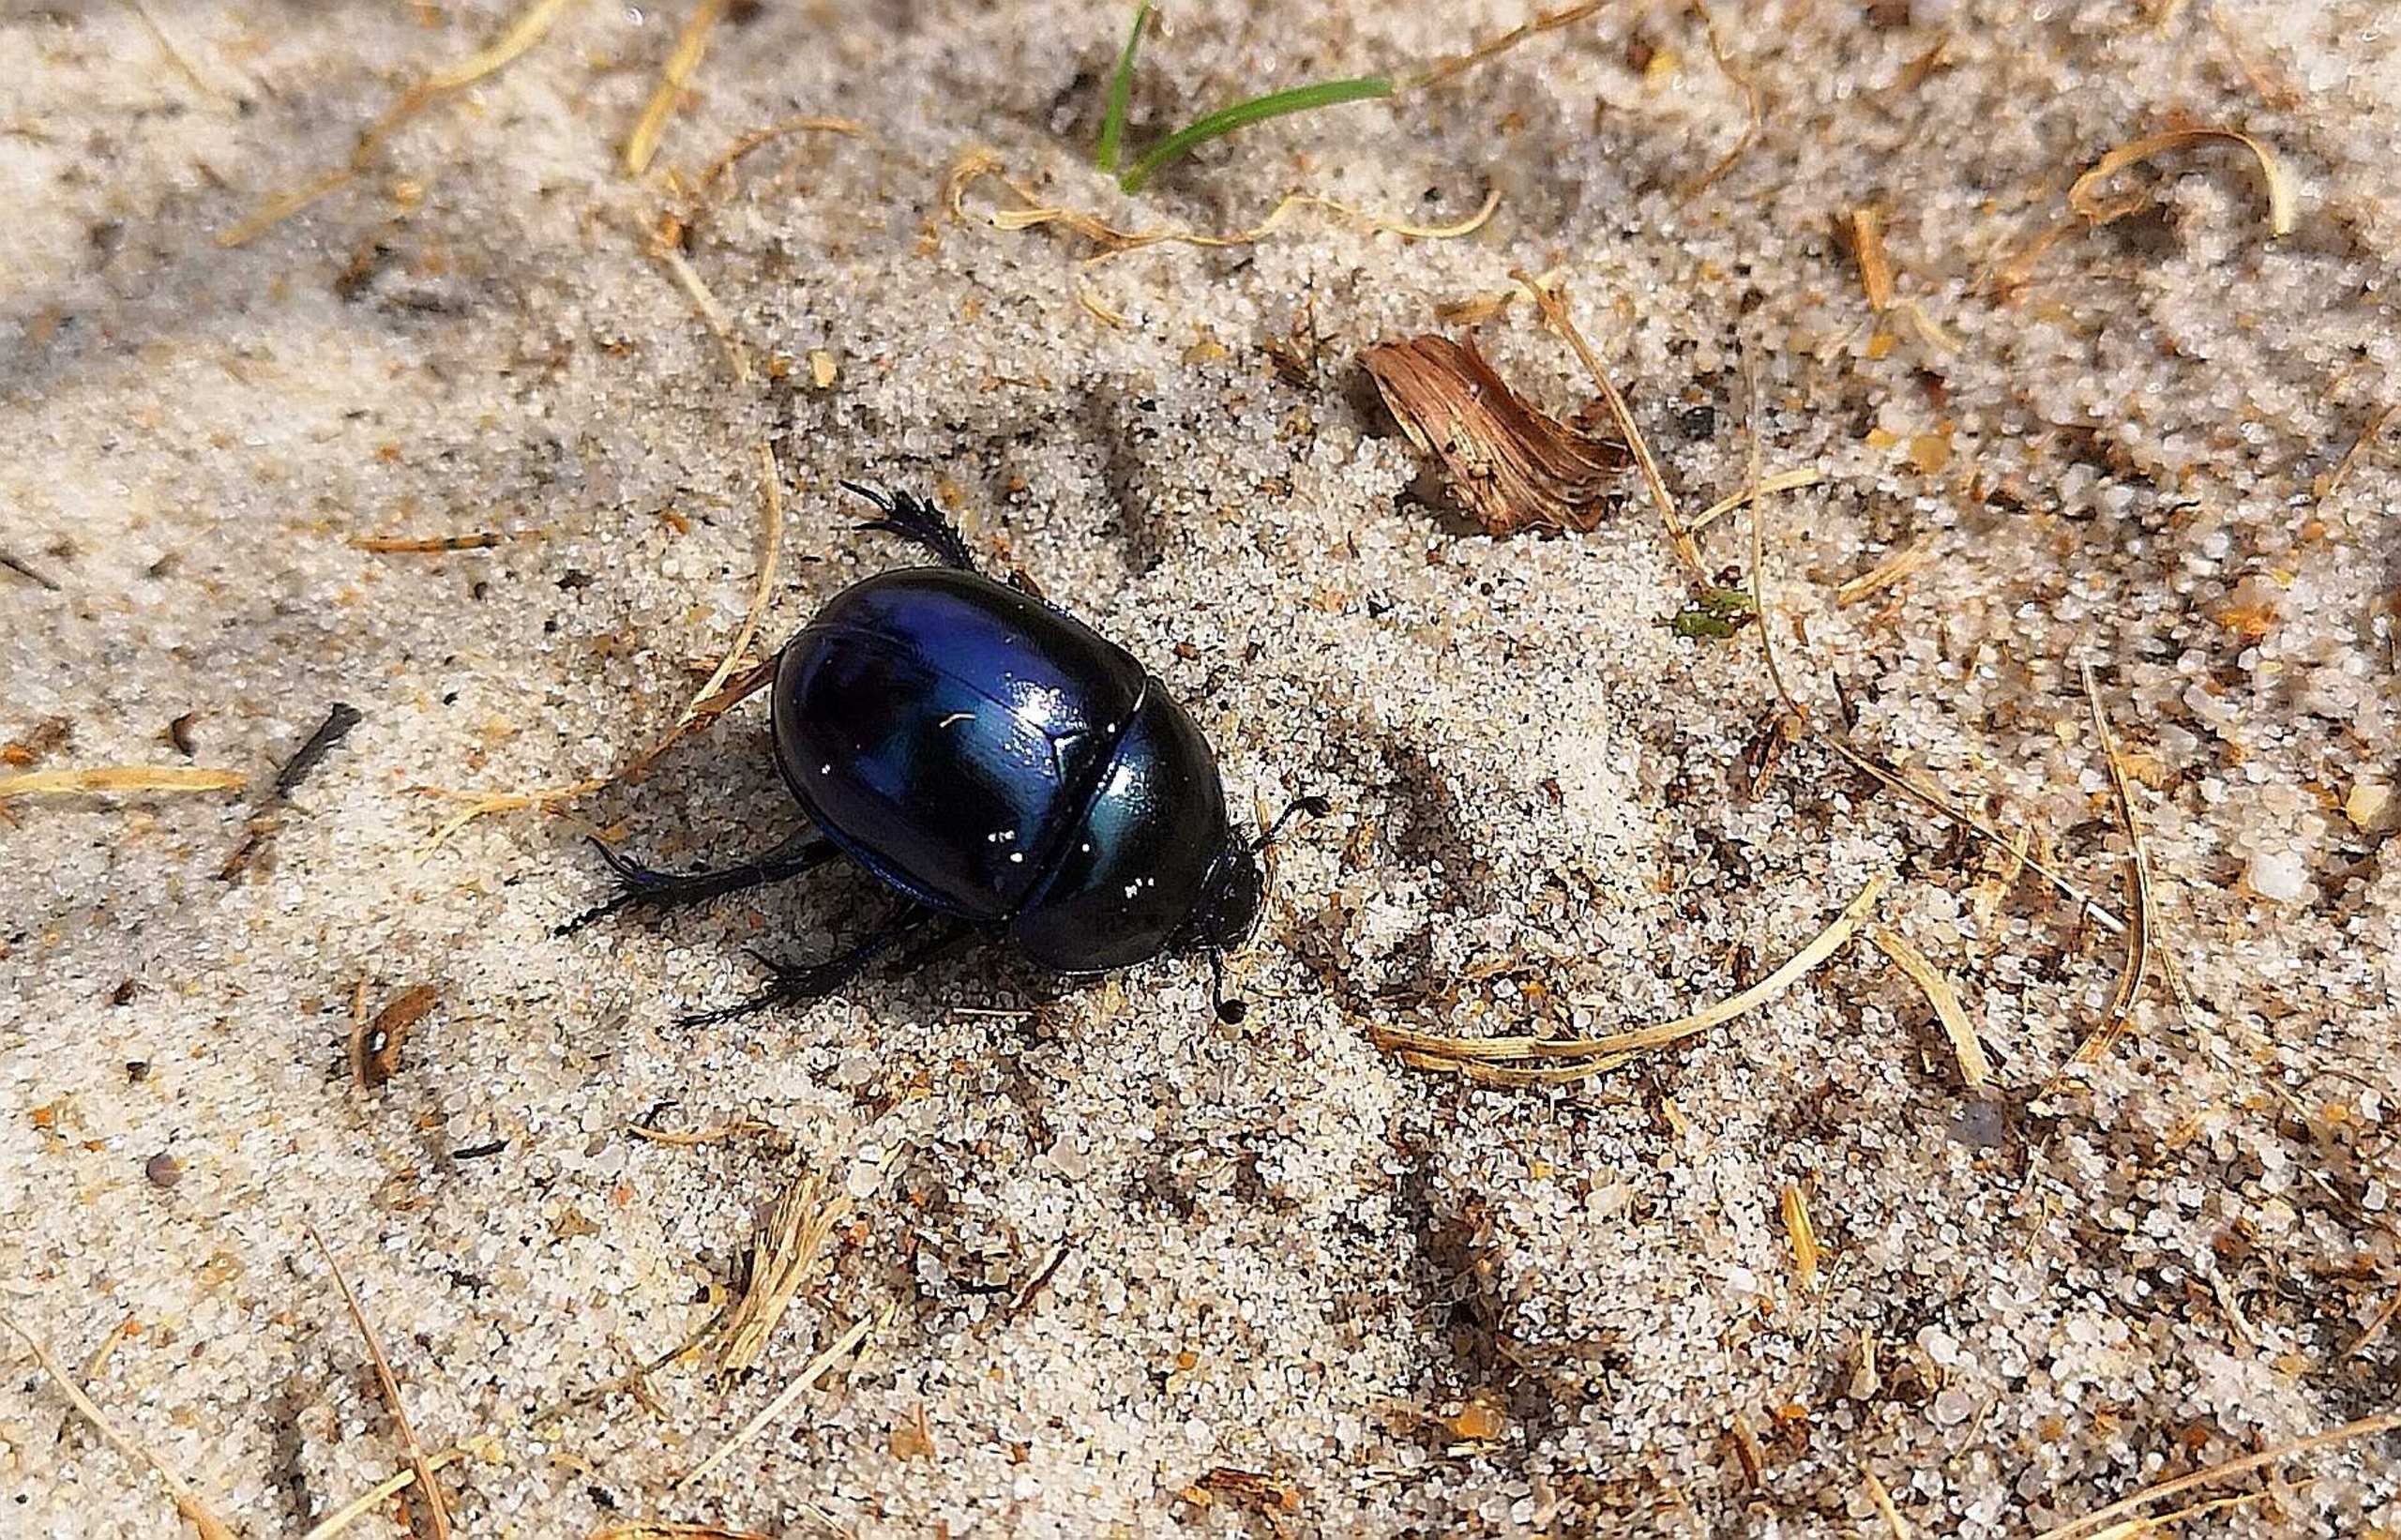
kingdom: Animalia
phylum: Arthropoda
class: Insecta
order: Coleoptera
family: Geotrupidae
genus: Trypocopris
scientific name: Trypocopris vernalis
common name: Glat skarnbasse
